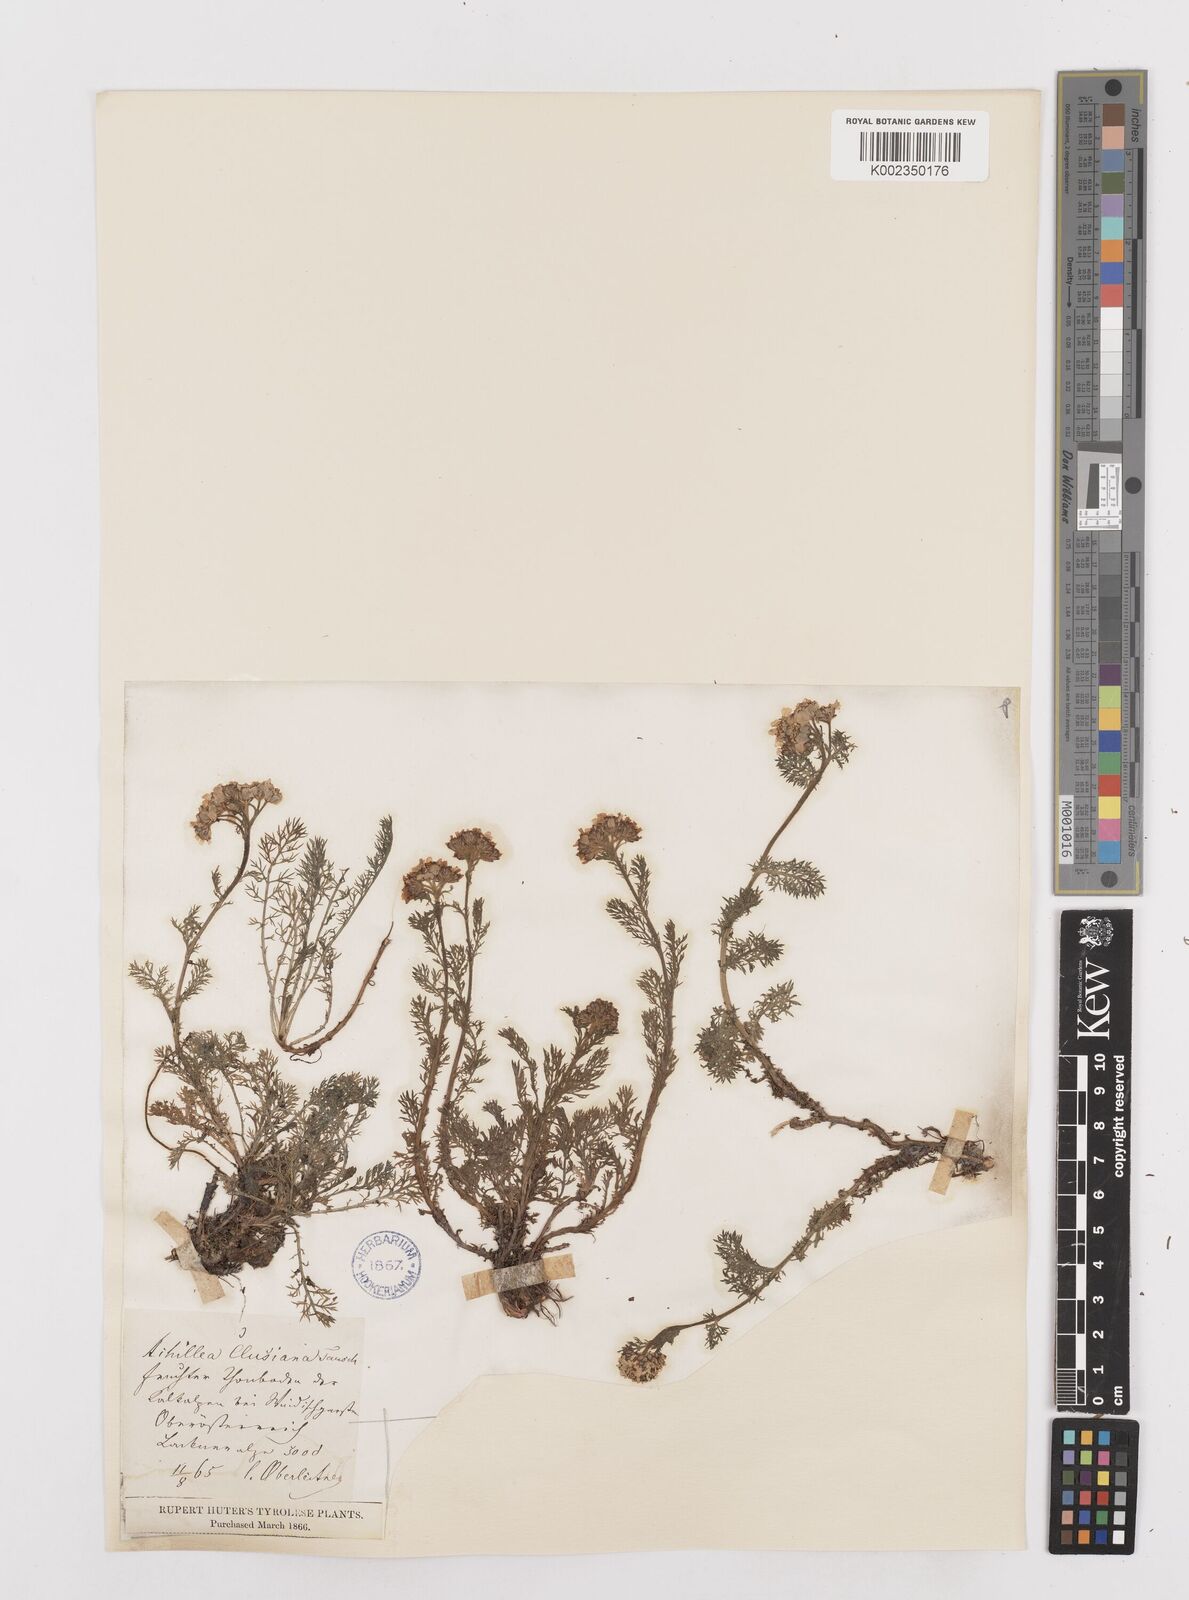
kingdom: Plantae
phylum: Tracheophyta
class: Magnoliopsida
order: Asterales
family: Asteraceae
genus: Achillea
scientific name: Achillea clusiana
